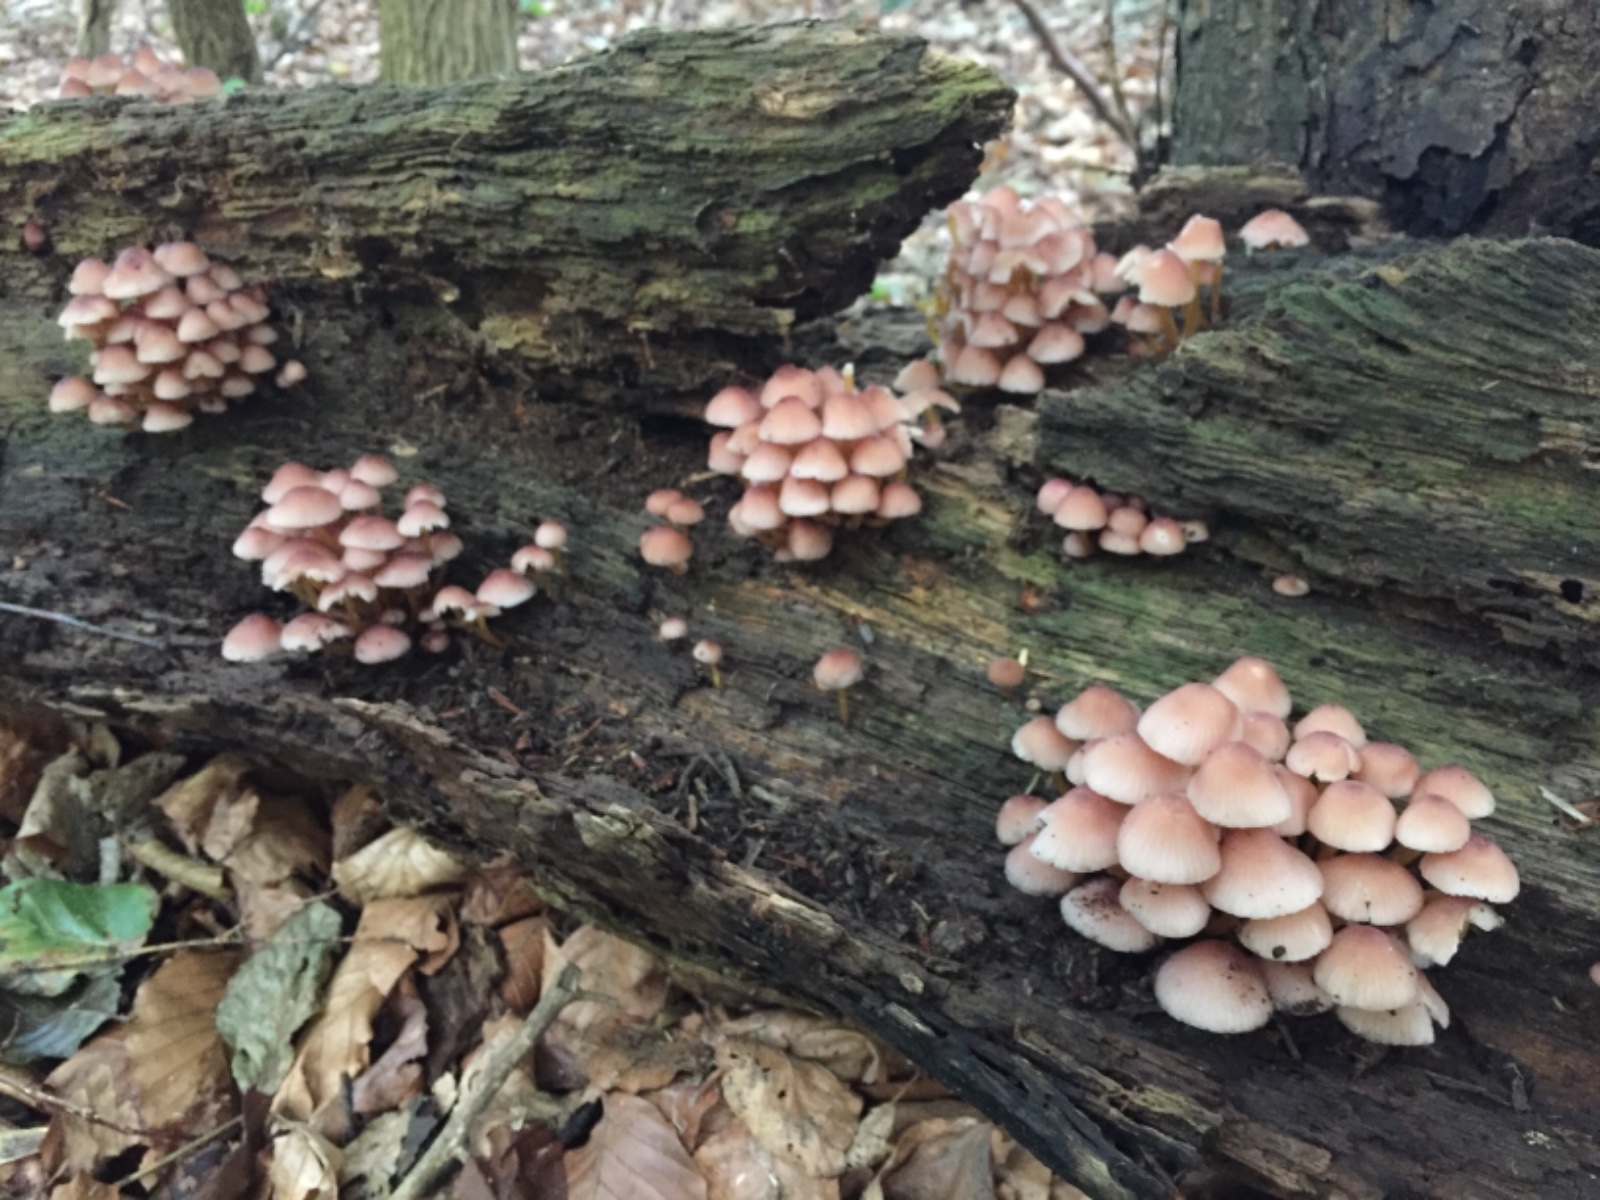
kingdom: Fungi
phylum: Basidiomycota
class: Agaricomycetes
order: Agaricales
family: Mycenaceae
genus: Mycena
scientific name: Mycena renati
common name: smuk huesvamp
